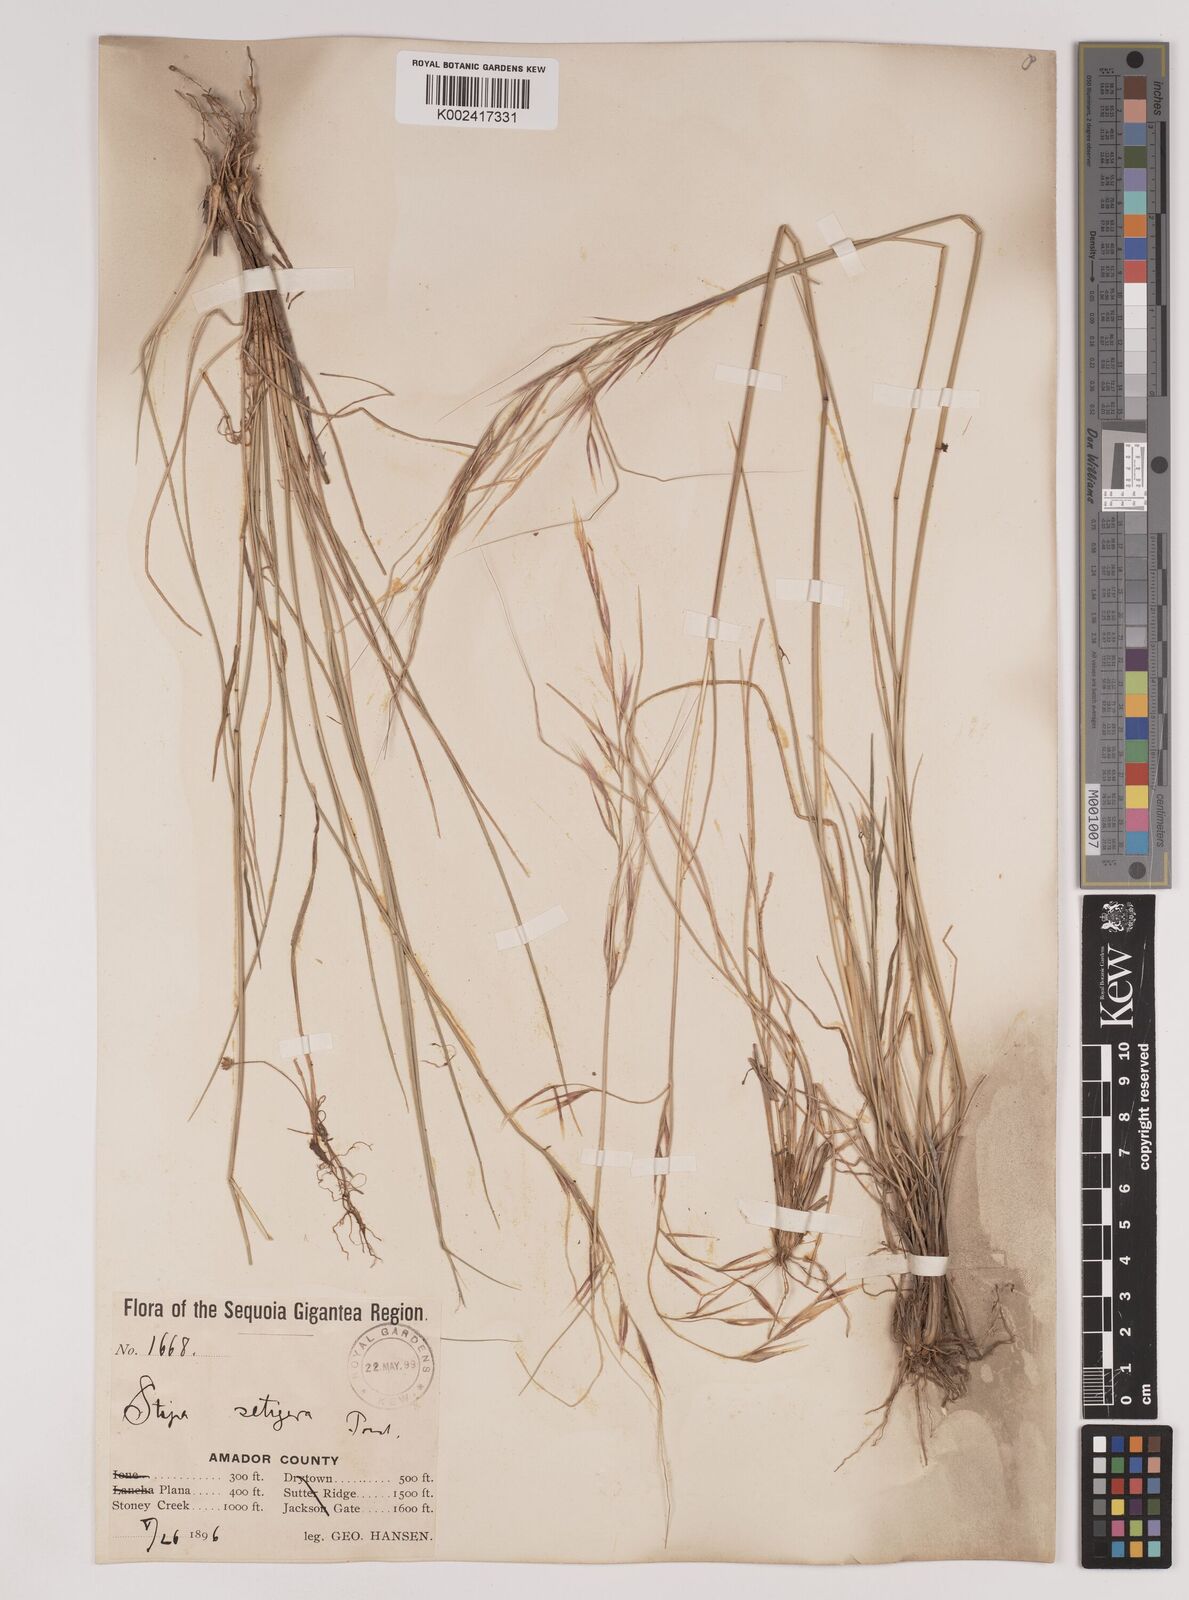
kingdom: Plantae
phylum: Tracheophyta
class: Liliopsida
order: Poales
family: Poaceae
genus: Nassella
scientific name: Nassella pulchra
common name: Purple needlegrass
